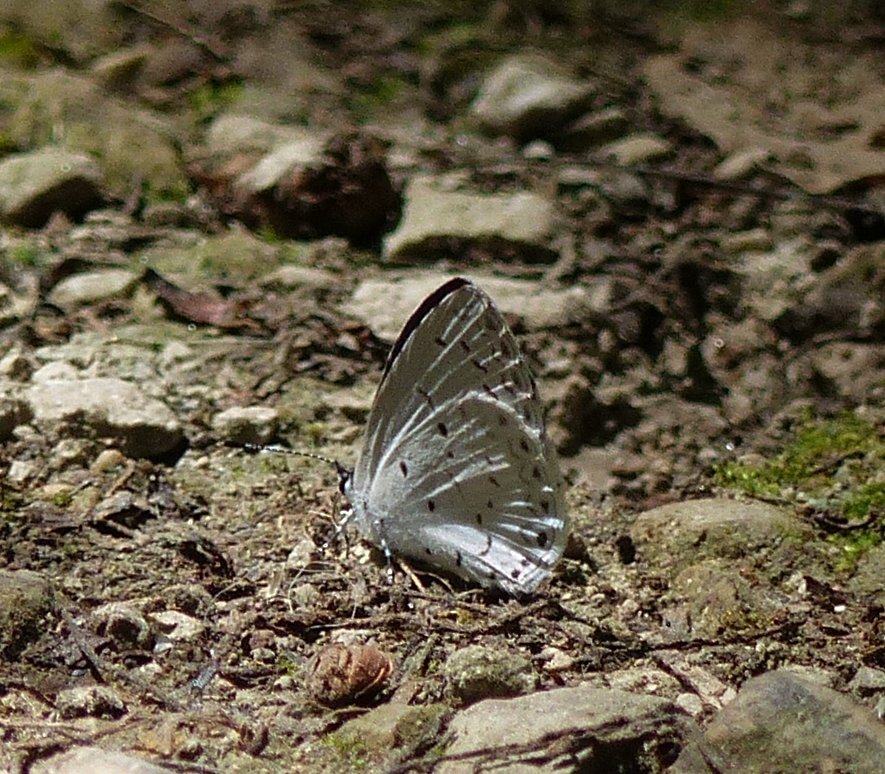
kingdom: Animalia
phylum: Arthropoda
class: Insecta
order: Lepidoptera
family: Lycaenidae
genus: Celastrina
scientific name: Celastrina
